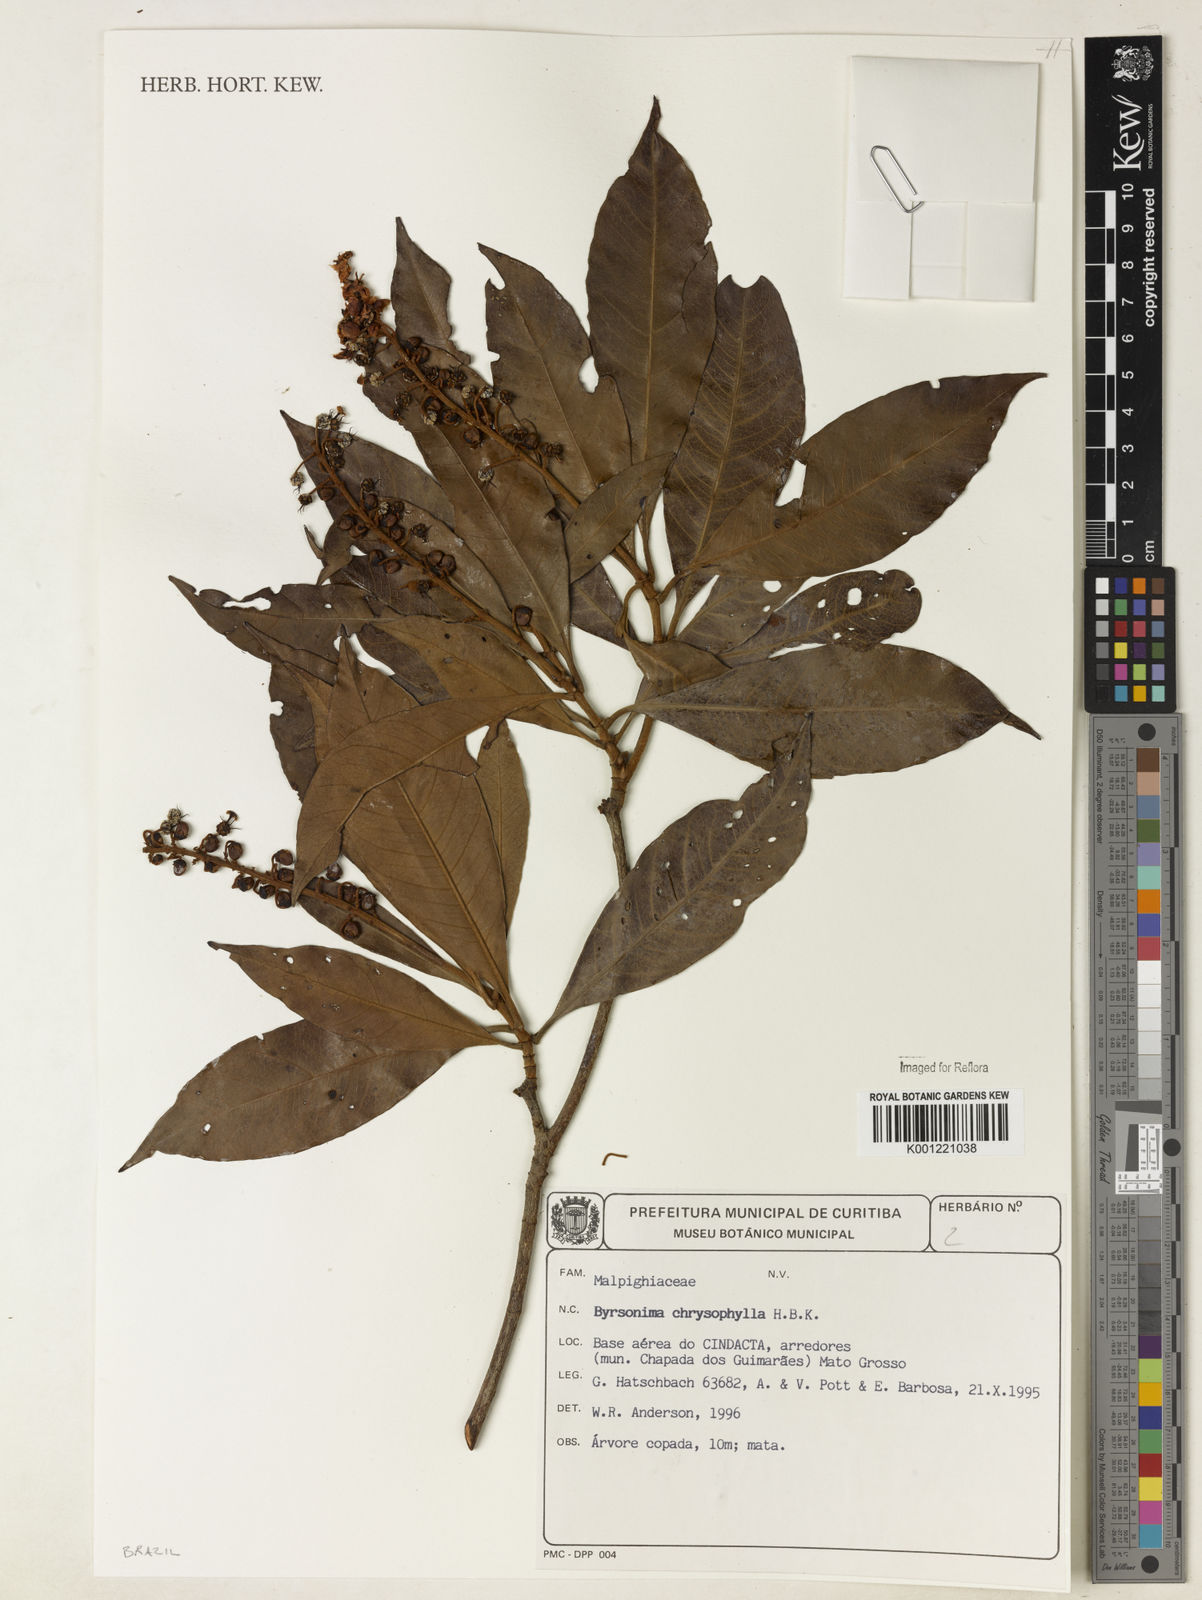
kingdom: Plantae
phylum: Tracheophyta
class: Magnoliopsida
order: Malpighiales
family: Malpighiaceae
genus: Byrsonima
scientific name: Byrsonima chrysophylla
